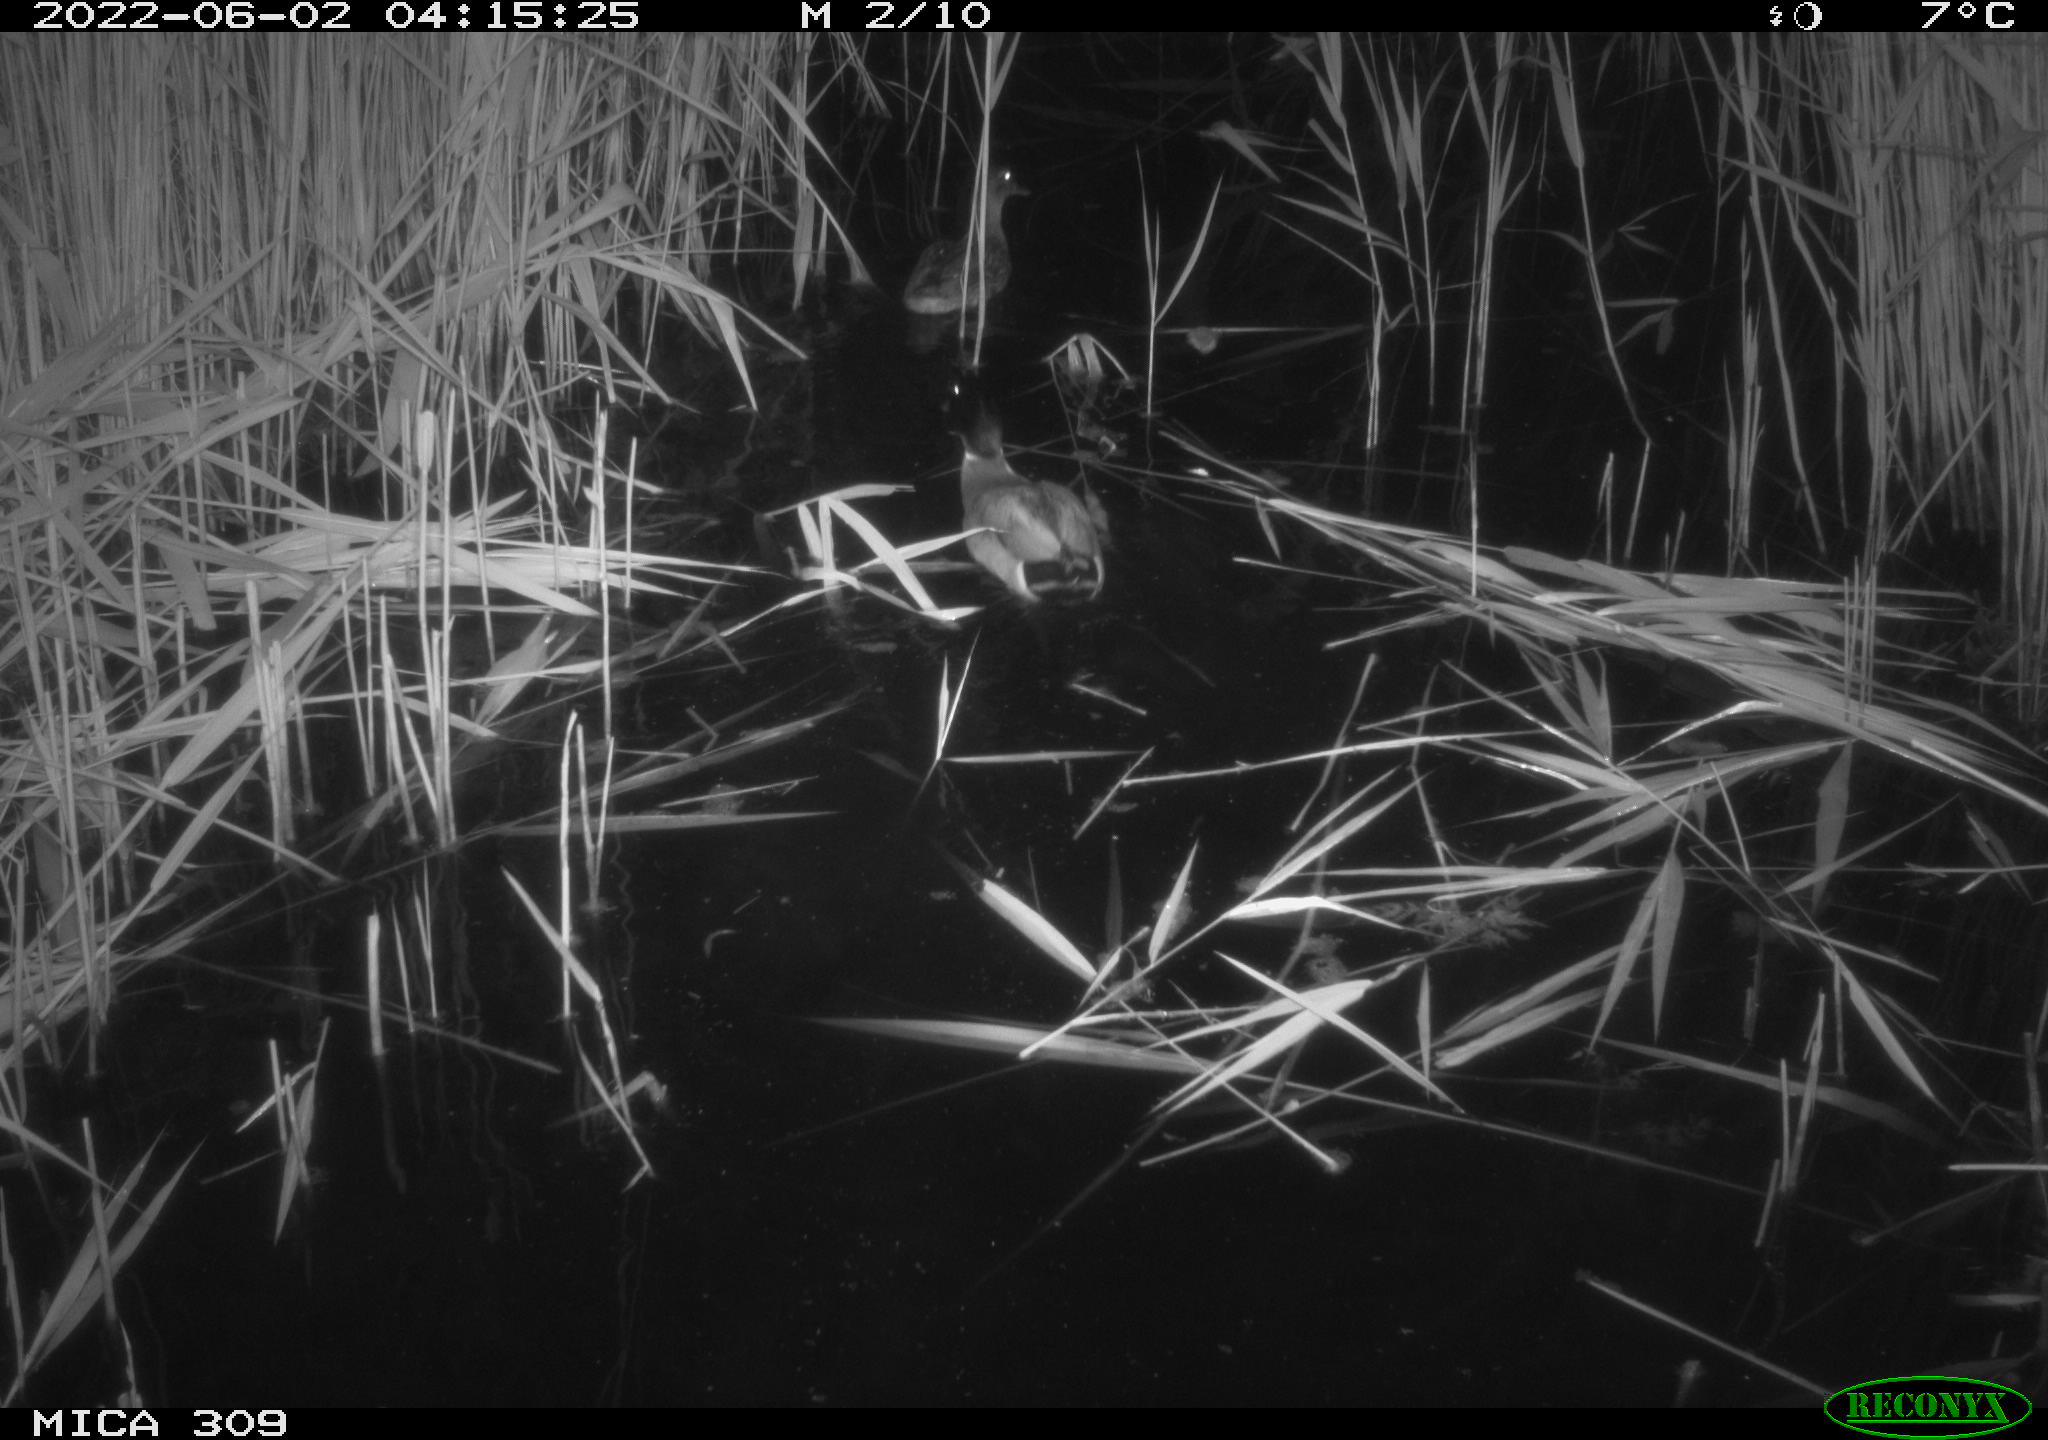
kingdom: Animalia
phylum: Chordata
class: Aves
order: Anseriformes
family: Anatidae
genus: Anas
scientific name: Anas platyrhynchos
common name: Mallard
